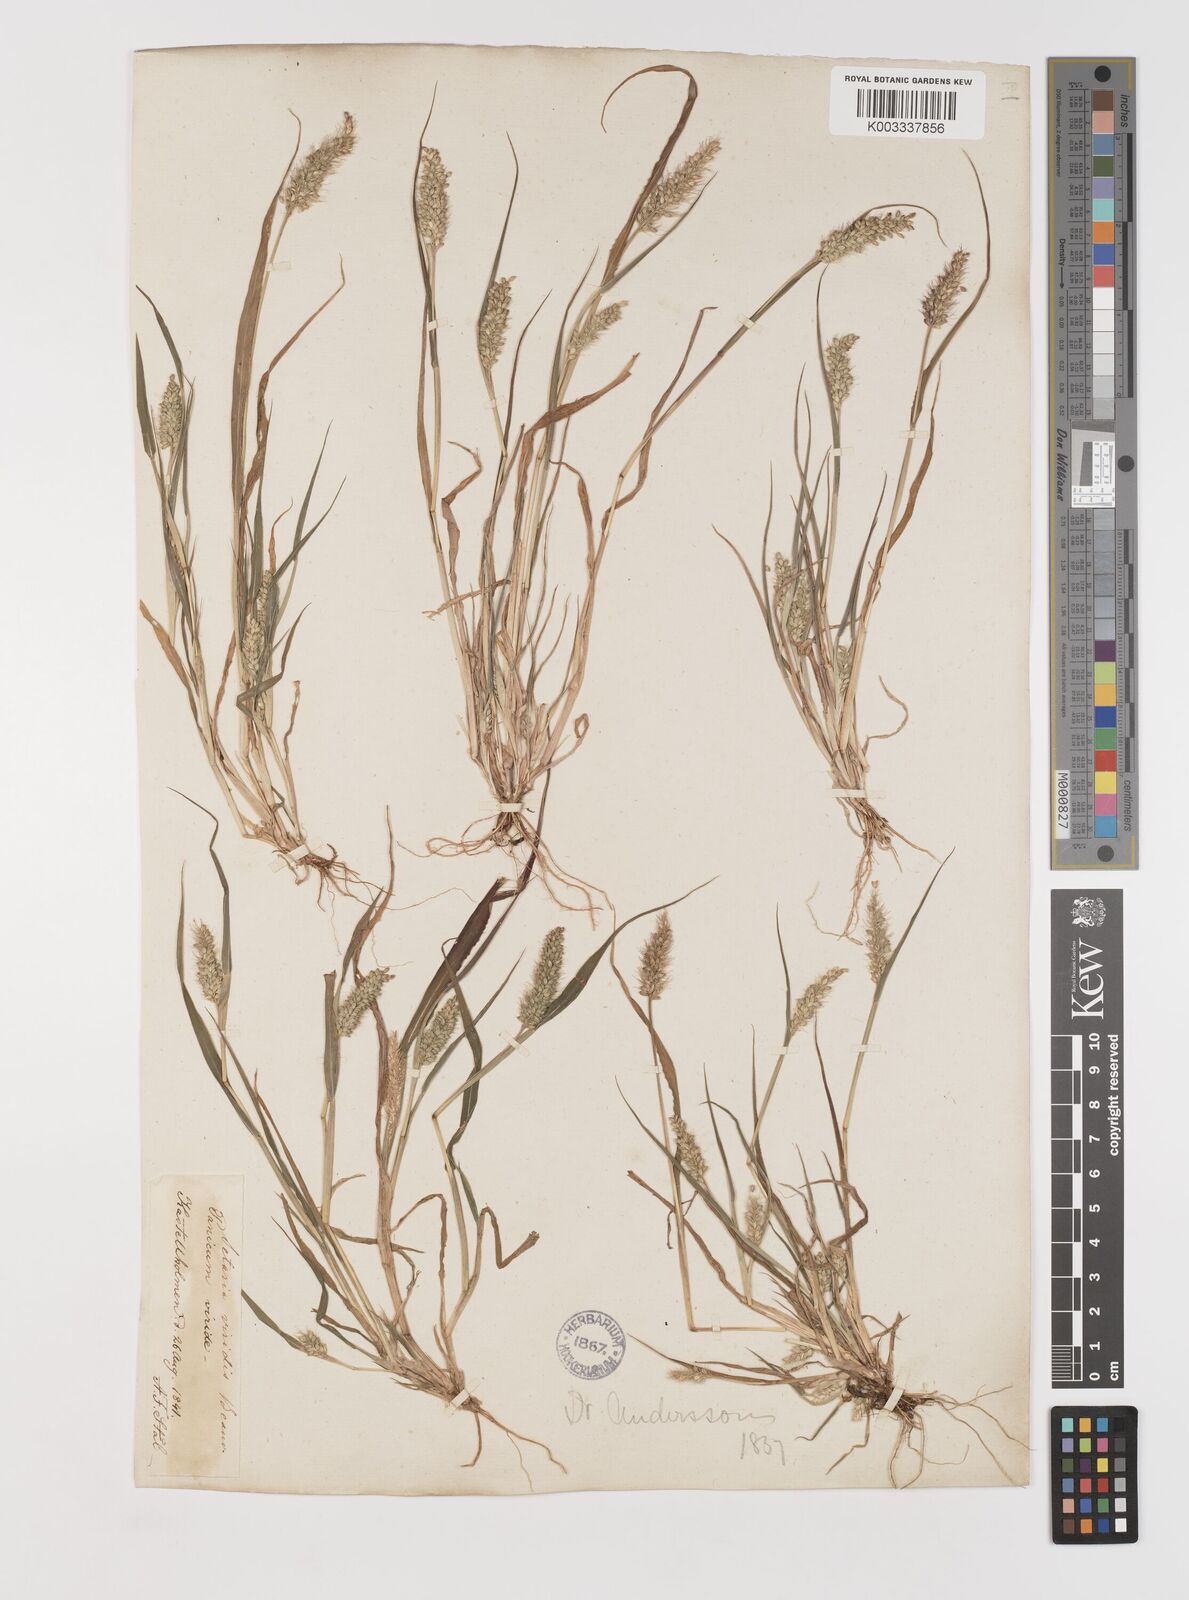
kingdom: Plantae
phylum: Tracheophyta
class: Liliopsida
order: Poales
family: Poaceae
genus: Setaria
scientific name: Setaria viridis
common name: Green bristlegrass
